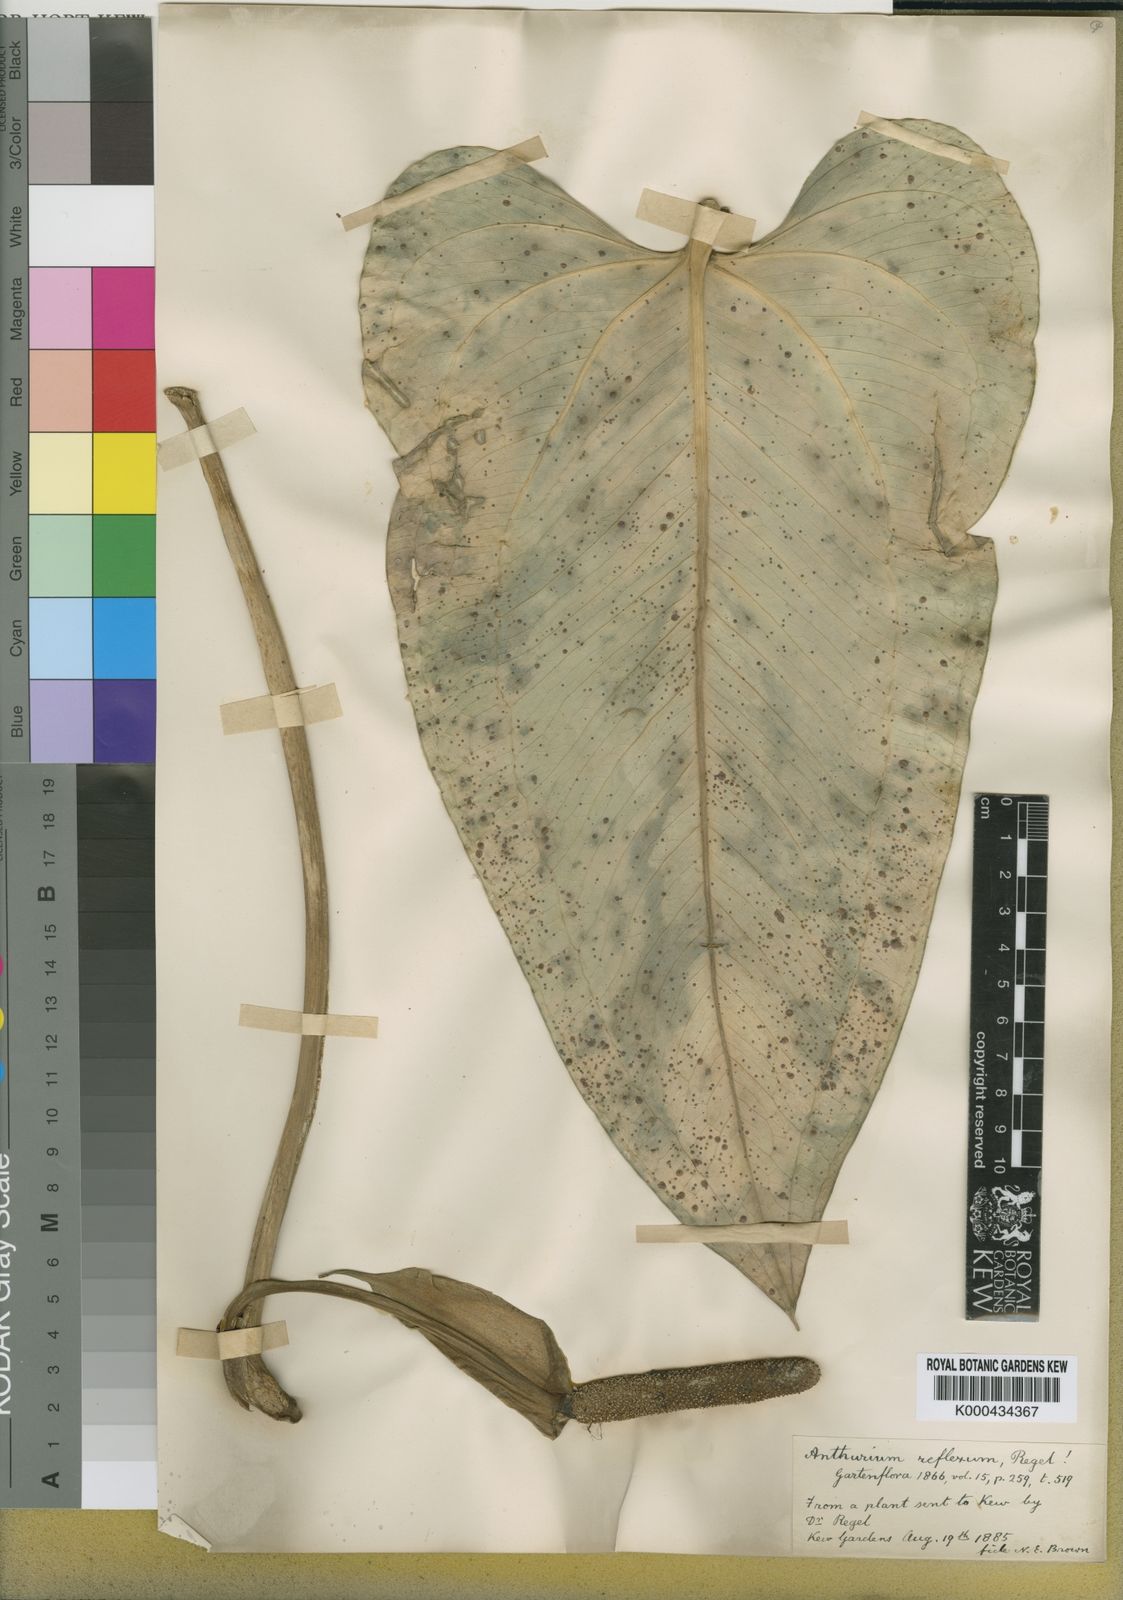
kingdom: Plantae
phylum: Tracheophyta
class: Liliopsida
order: Alismatales
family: Araceae
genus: Anthurium
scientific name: Anthurium coriaceum
